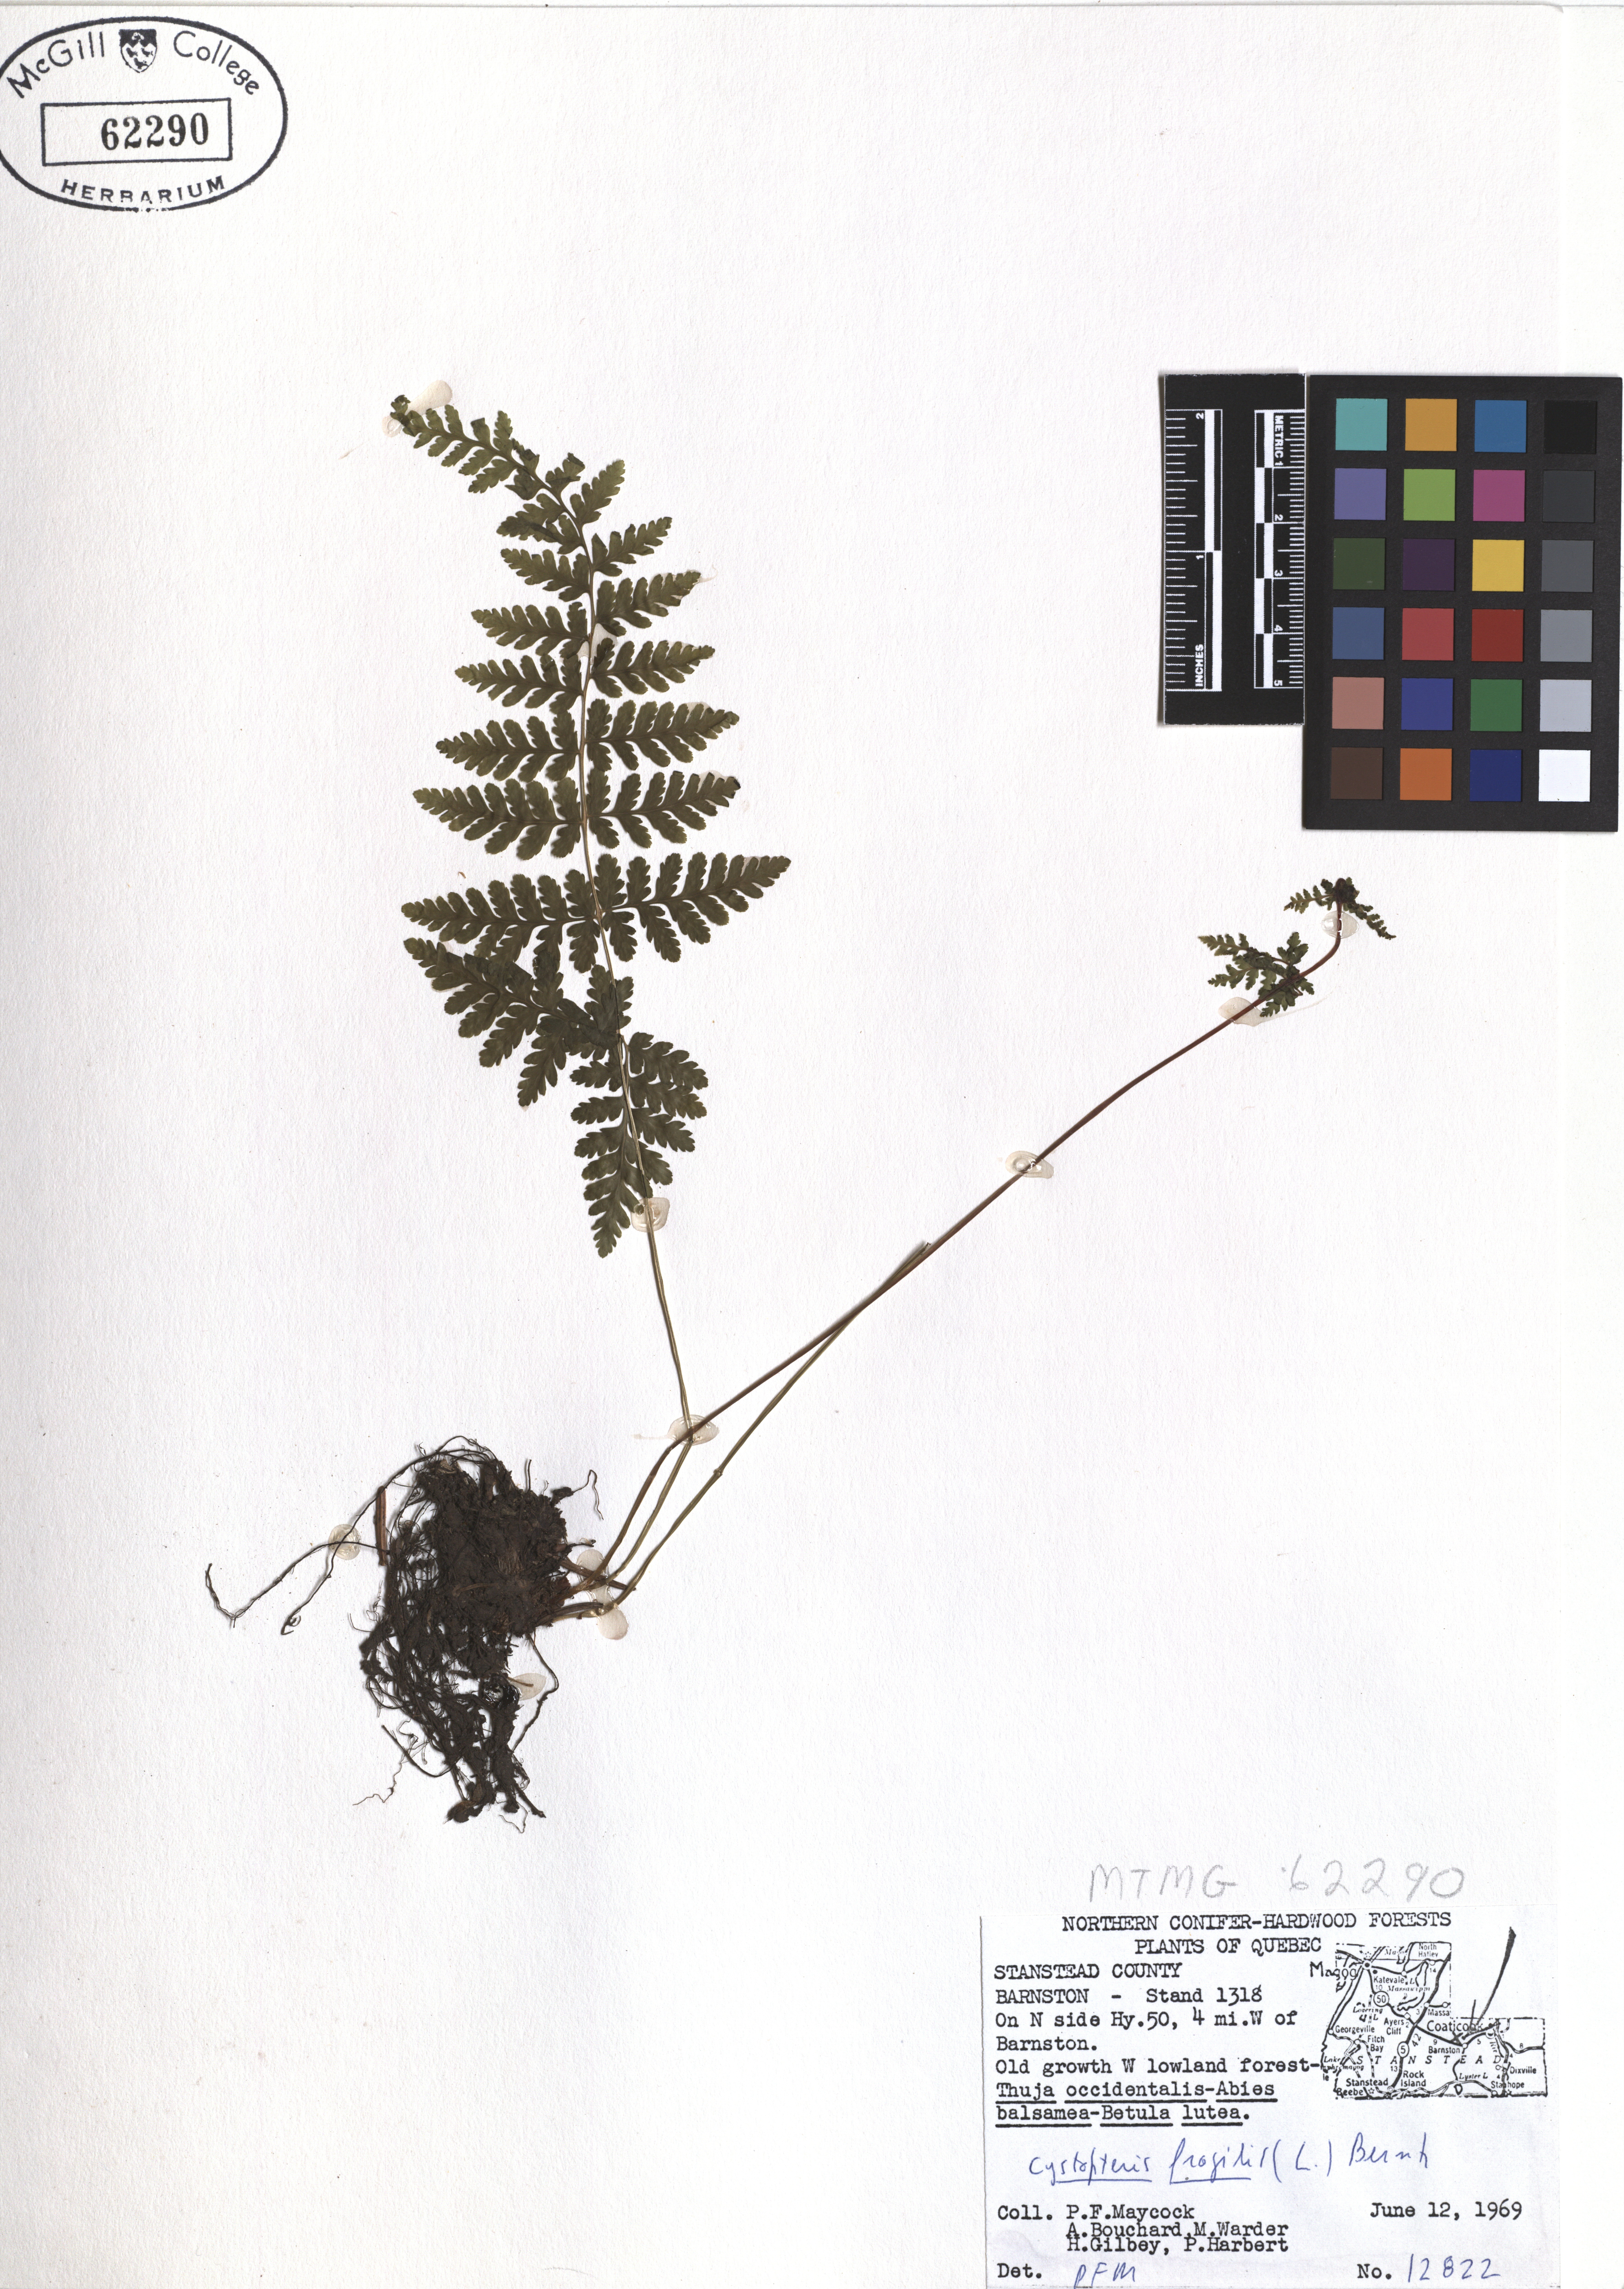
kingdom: Plantae
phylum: Tracheophyta
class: Polypodiopsida
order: Polypodiales
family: Cystopteridaceae
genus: Cystopteris
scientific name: Cystopteris fragilis
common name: Brittle bladder fern
